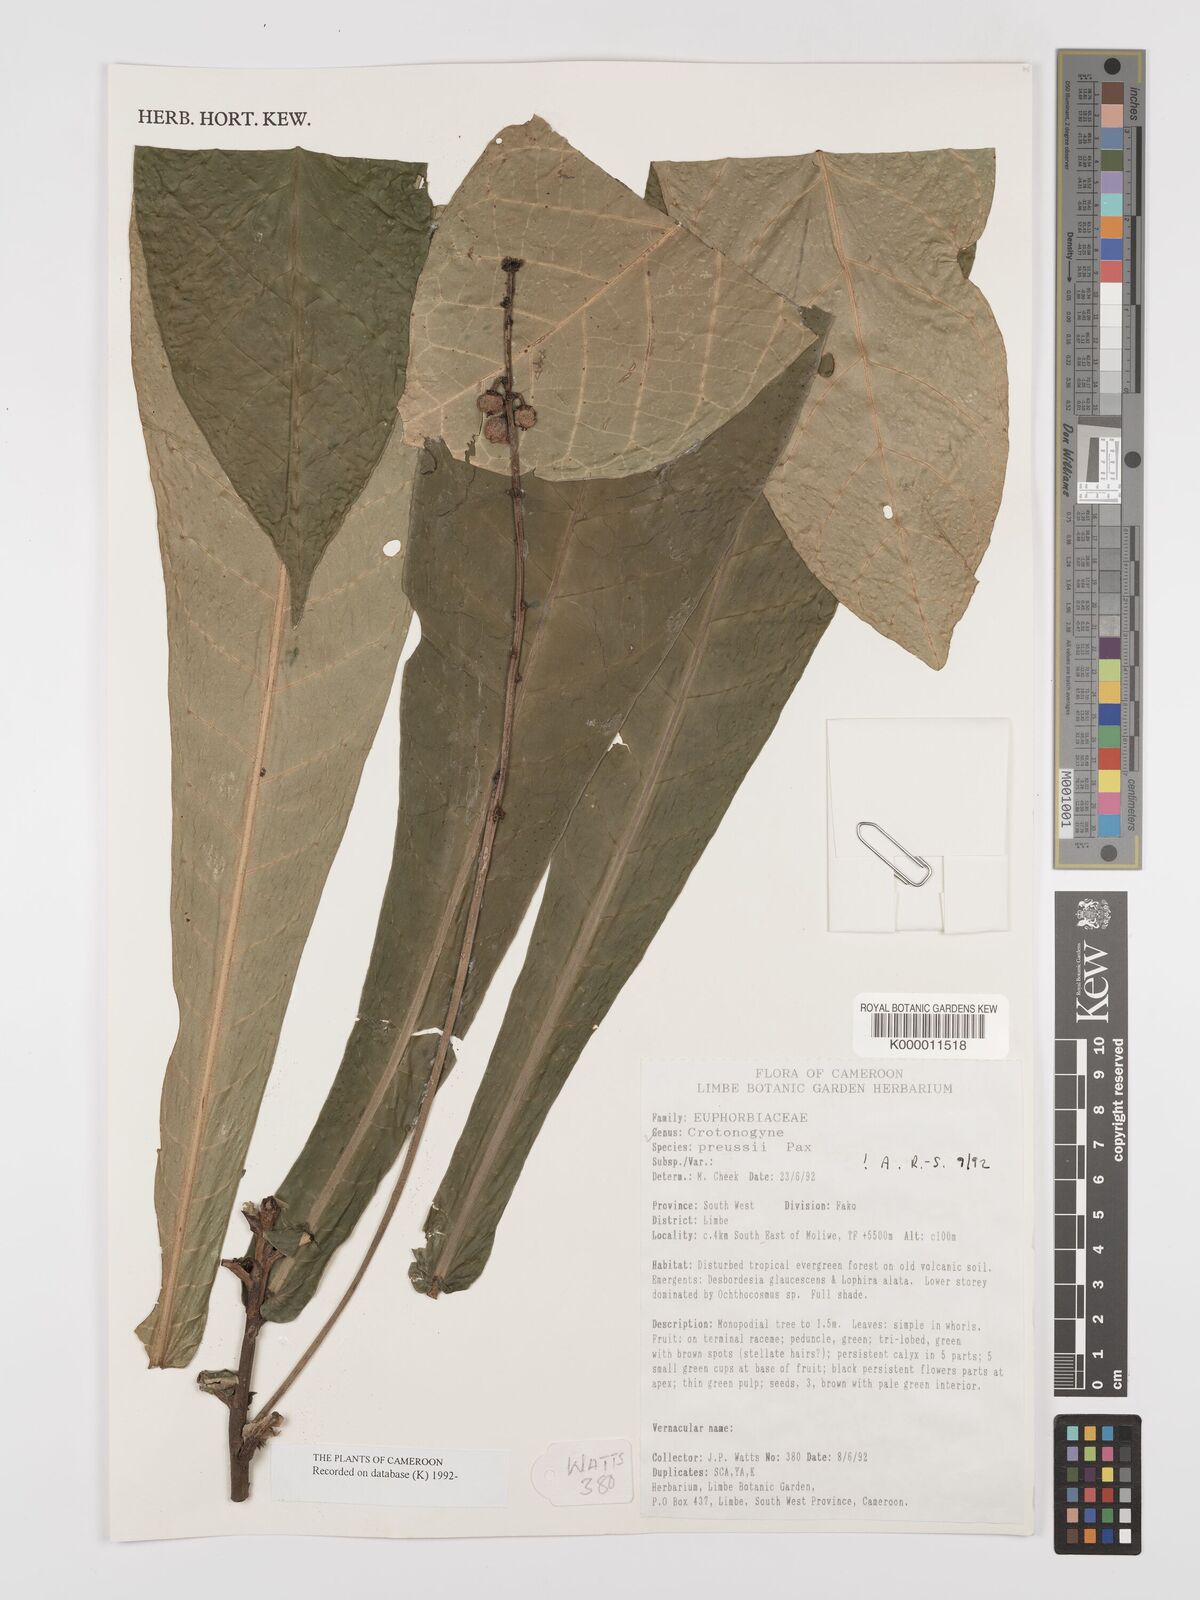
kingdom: Plantae
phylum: Tracheophyta
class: Magnoliopsida
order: Malpighiales
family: Euphorbiaceae
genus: Crotonogyne
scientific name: Crotonogyne preussii
